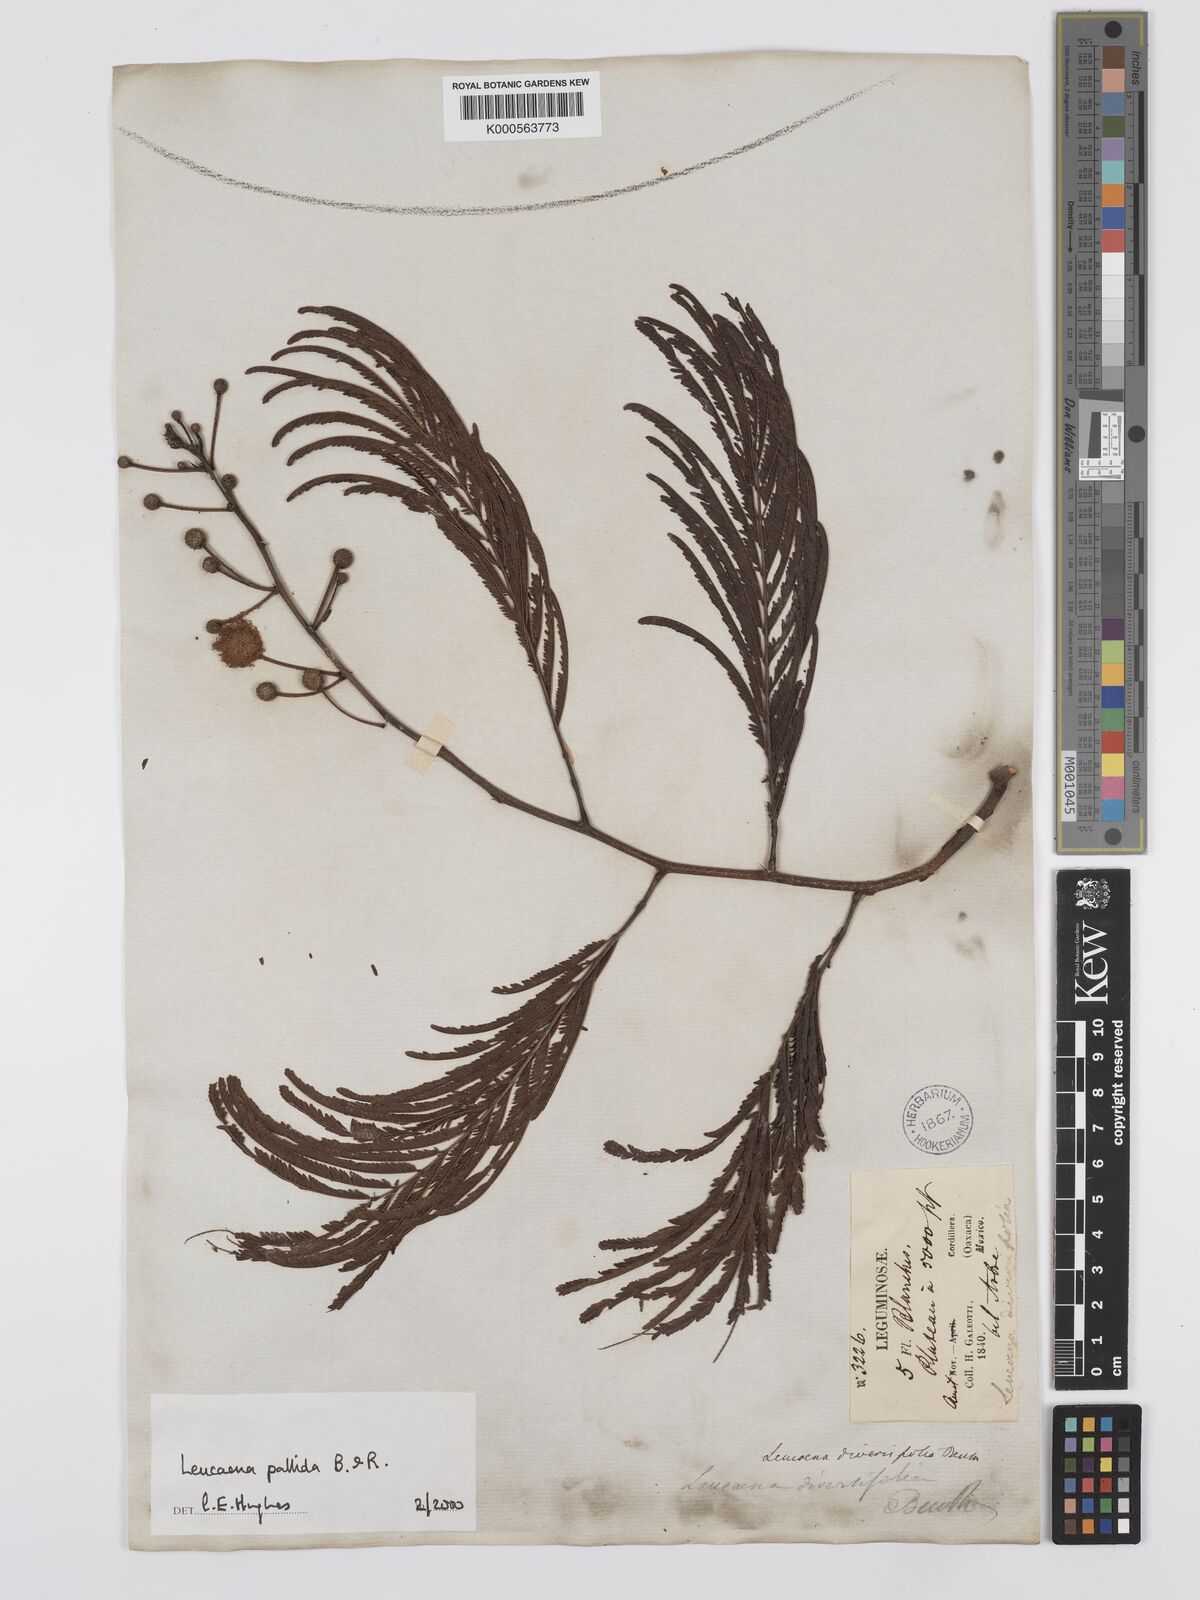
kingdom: Plantae
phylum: Tracheophyta
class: Magnoliopsida
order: Fabales
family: Fabaceae
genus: Leucaena
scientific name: Leucaena pallida
